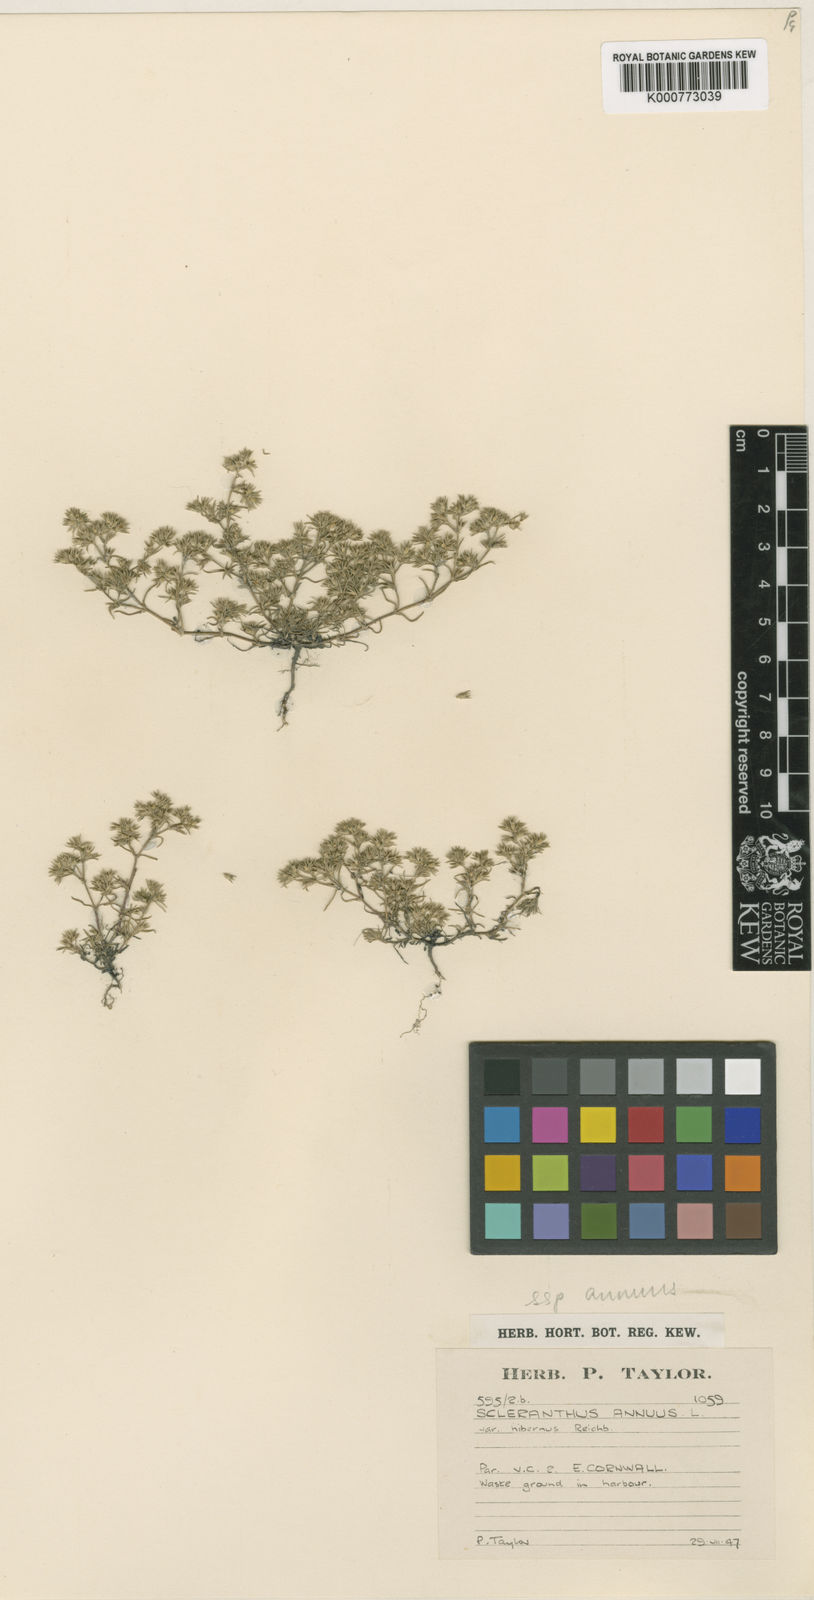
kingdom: Plantae
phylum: Tracheophyta
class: Magnoliopsida
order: Caryophyllales
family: Caryophyllaceae
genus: Scleranthus
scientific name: Scleranthus annuus
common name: Annual knawel
